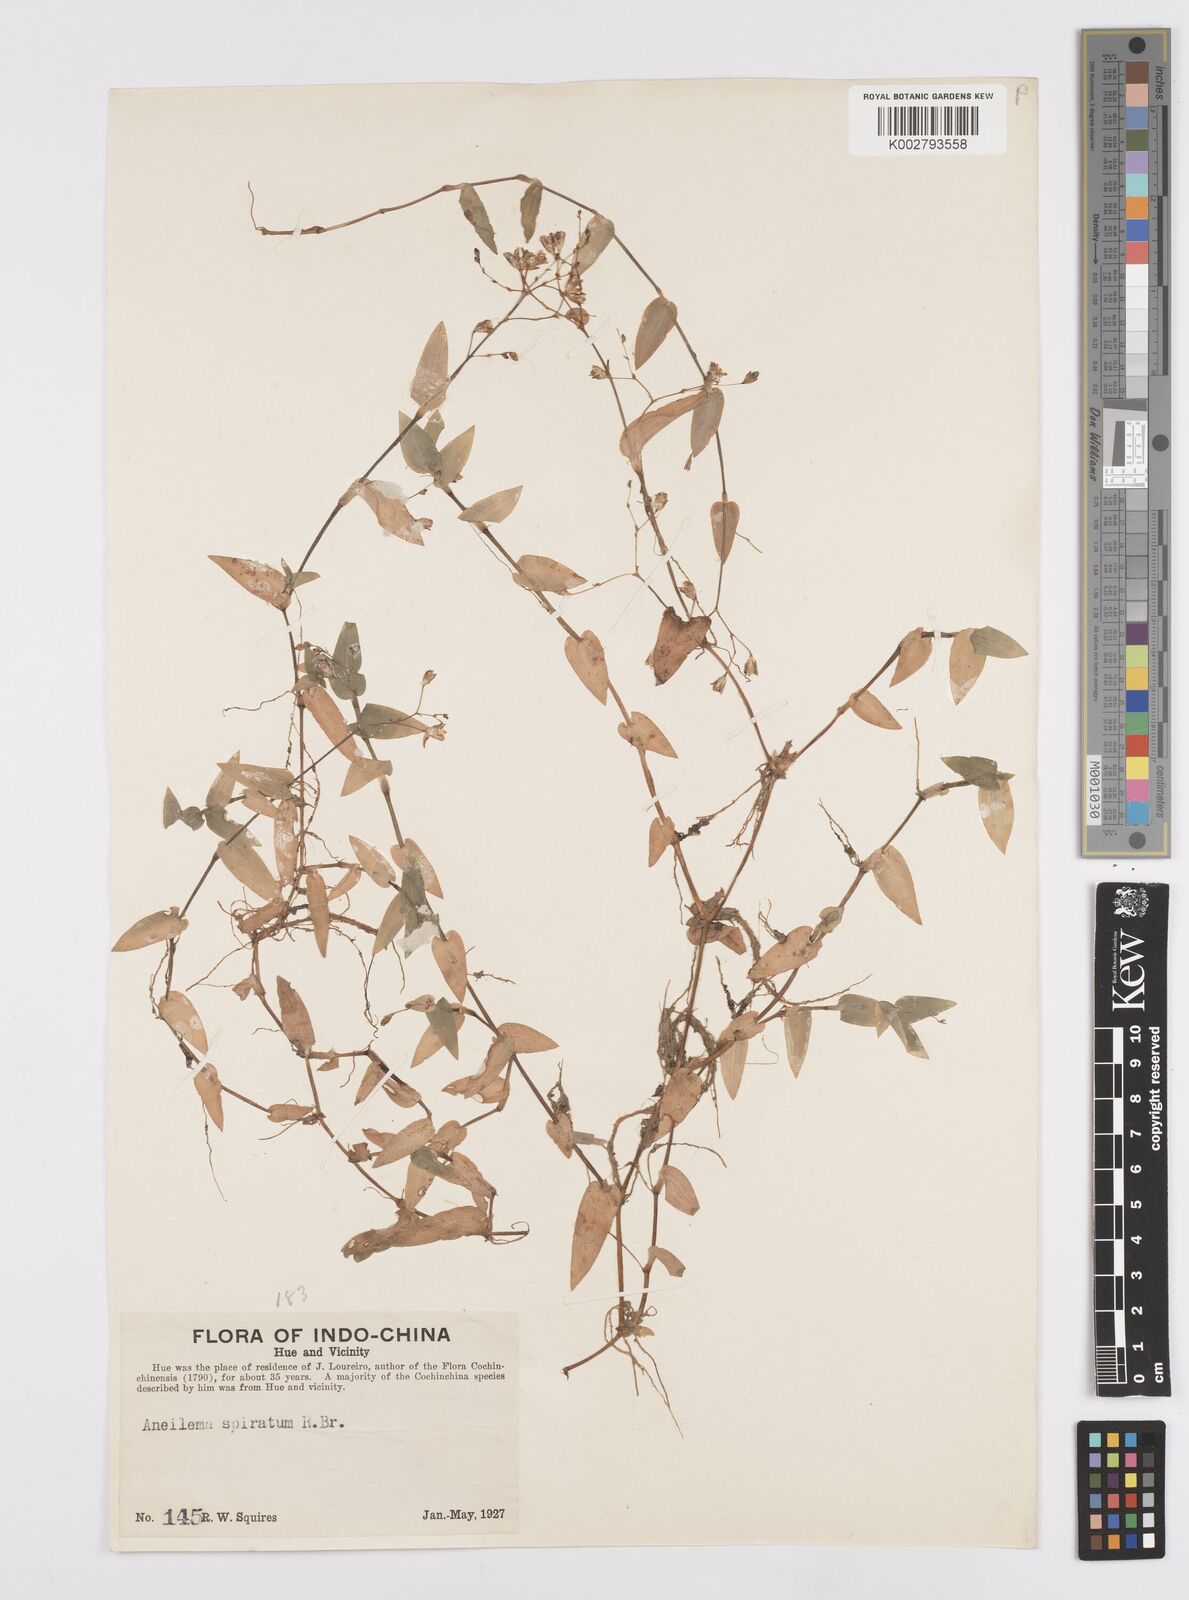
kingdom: Plantae
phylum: Tracheophyta
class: Liliopsida
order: Commelinales
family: Commelinaceae
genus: Murdannia
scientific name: Murdannia spirata
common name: Asiatic dewflower
